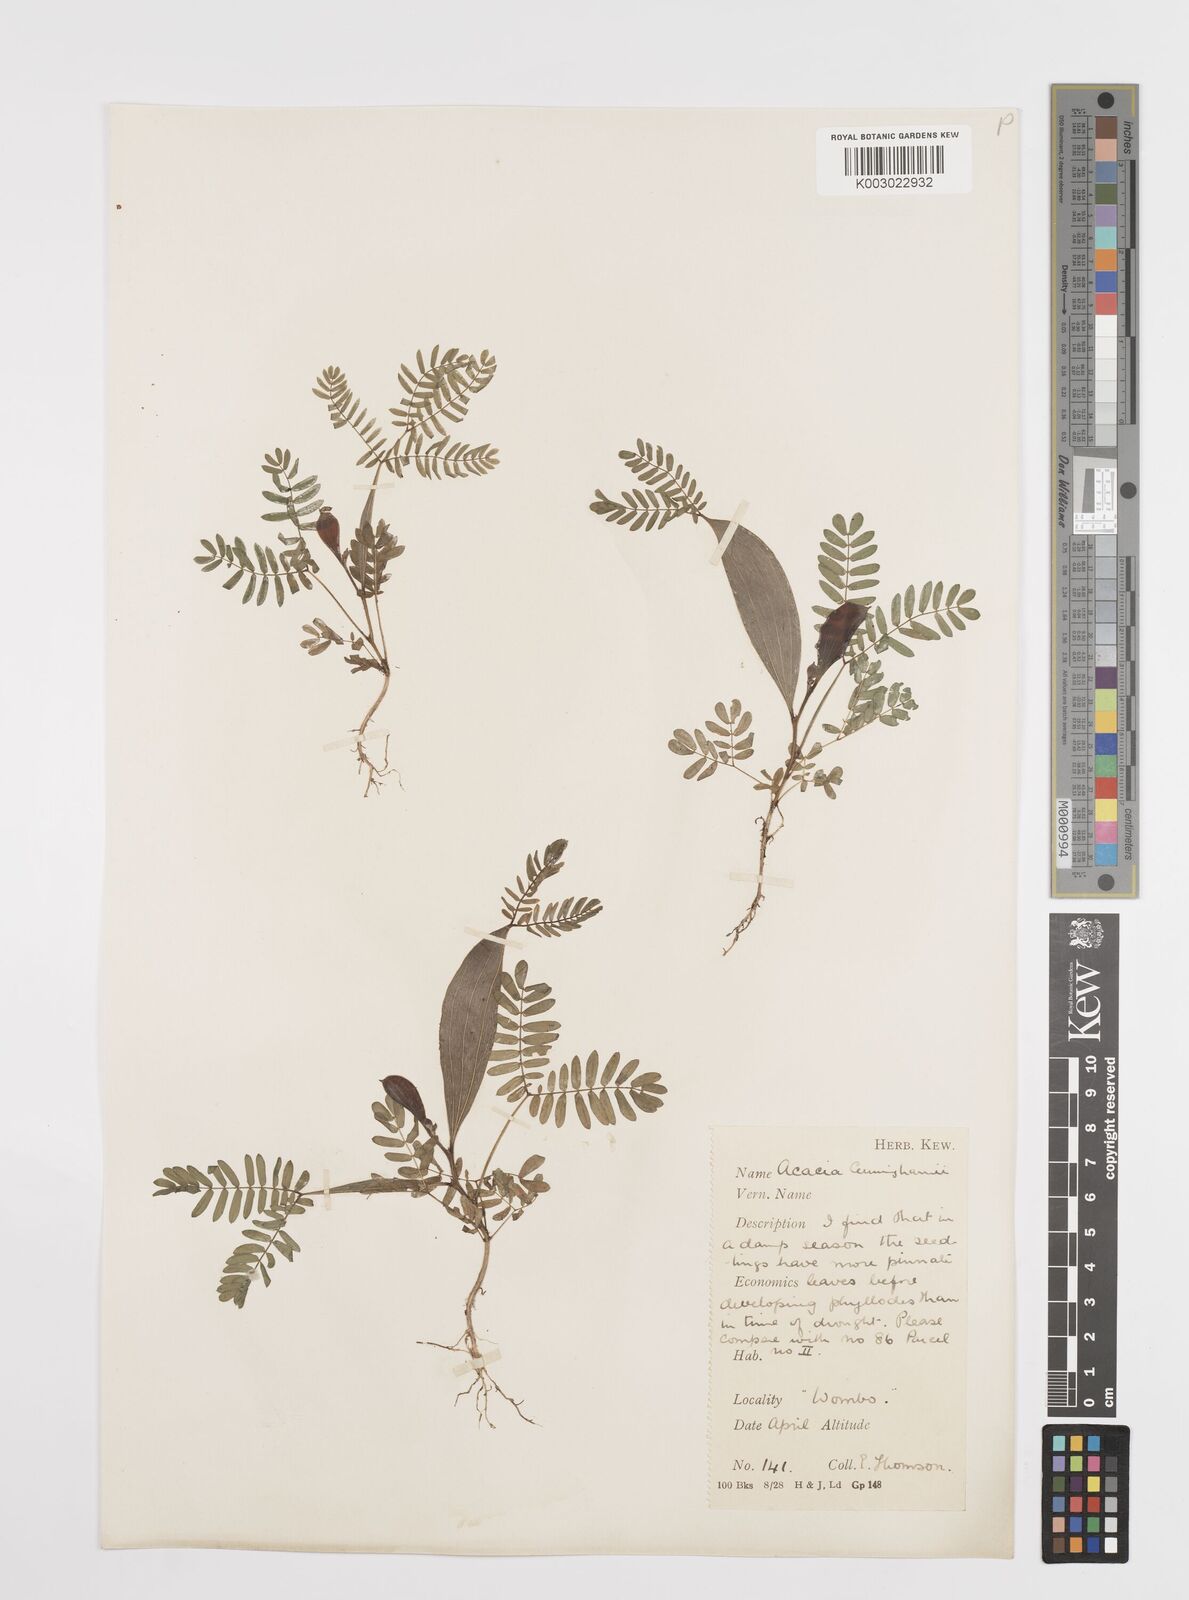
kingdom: Plantae
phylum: Tracheophyta
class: Magnoliopsida
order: Fabales
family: Fabaceae
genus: Acacia
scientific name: Acacia longispicata
